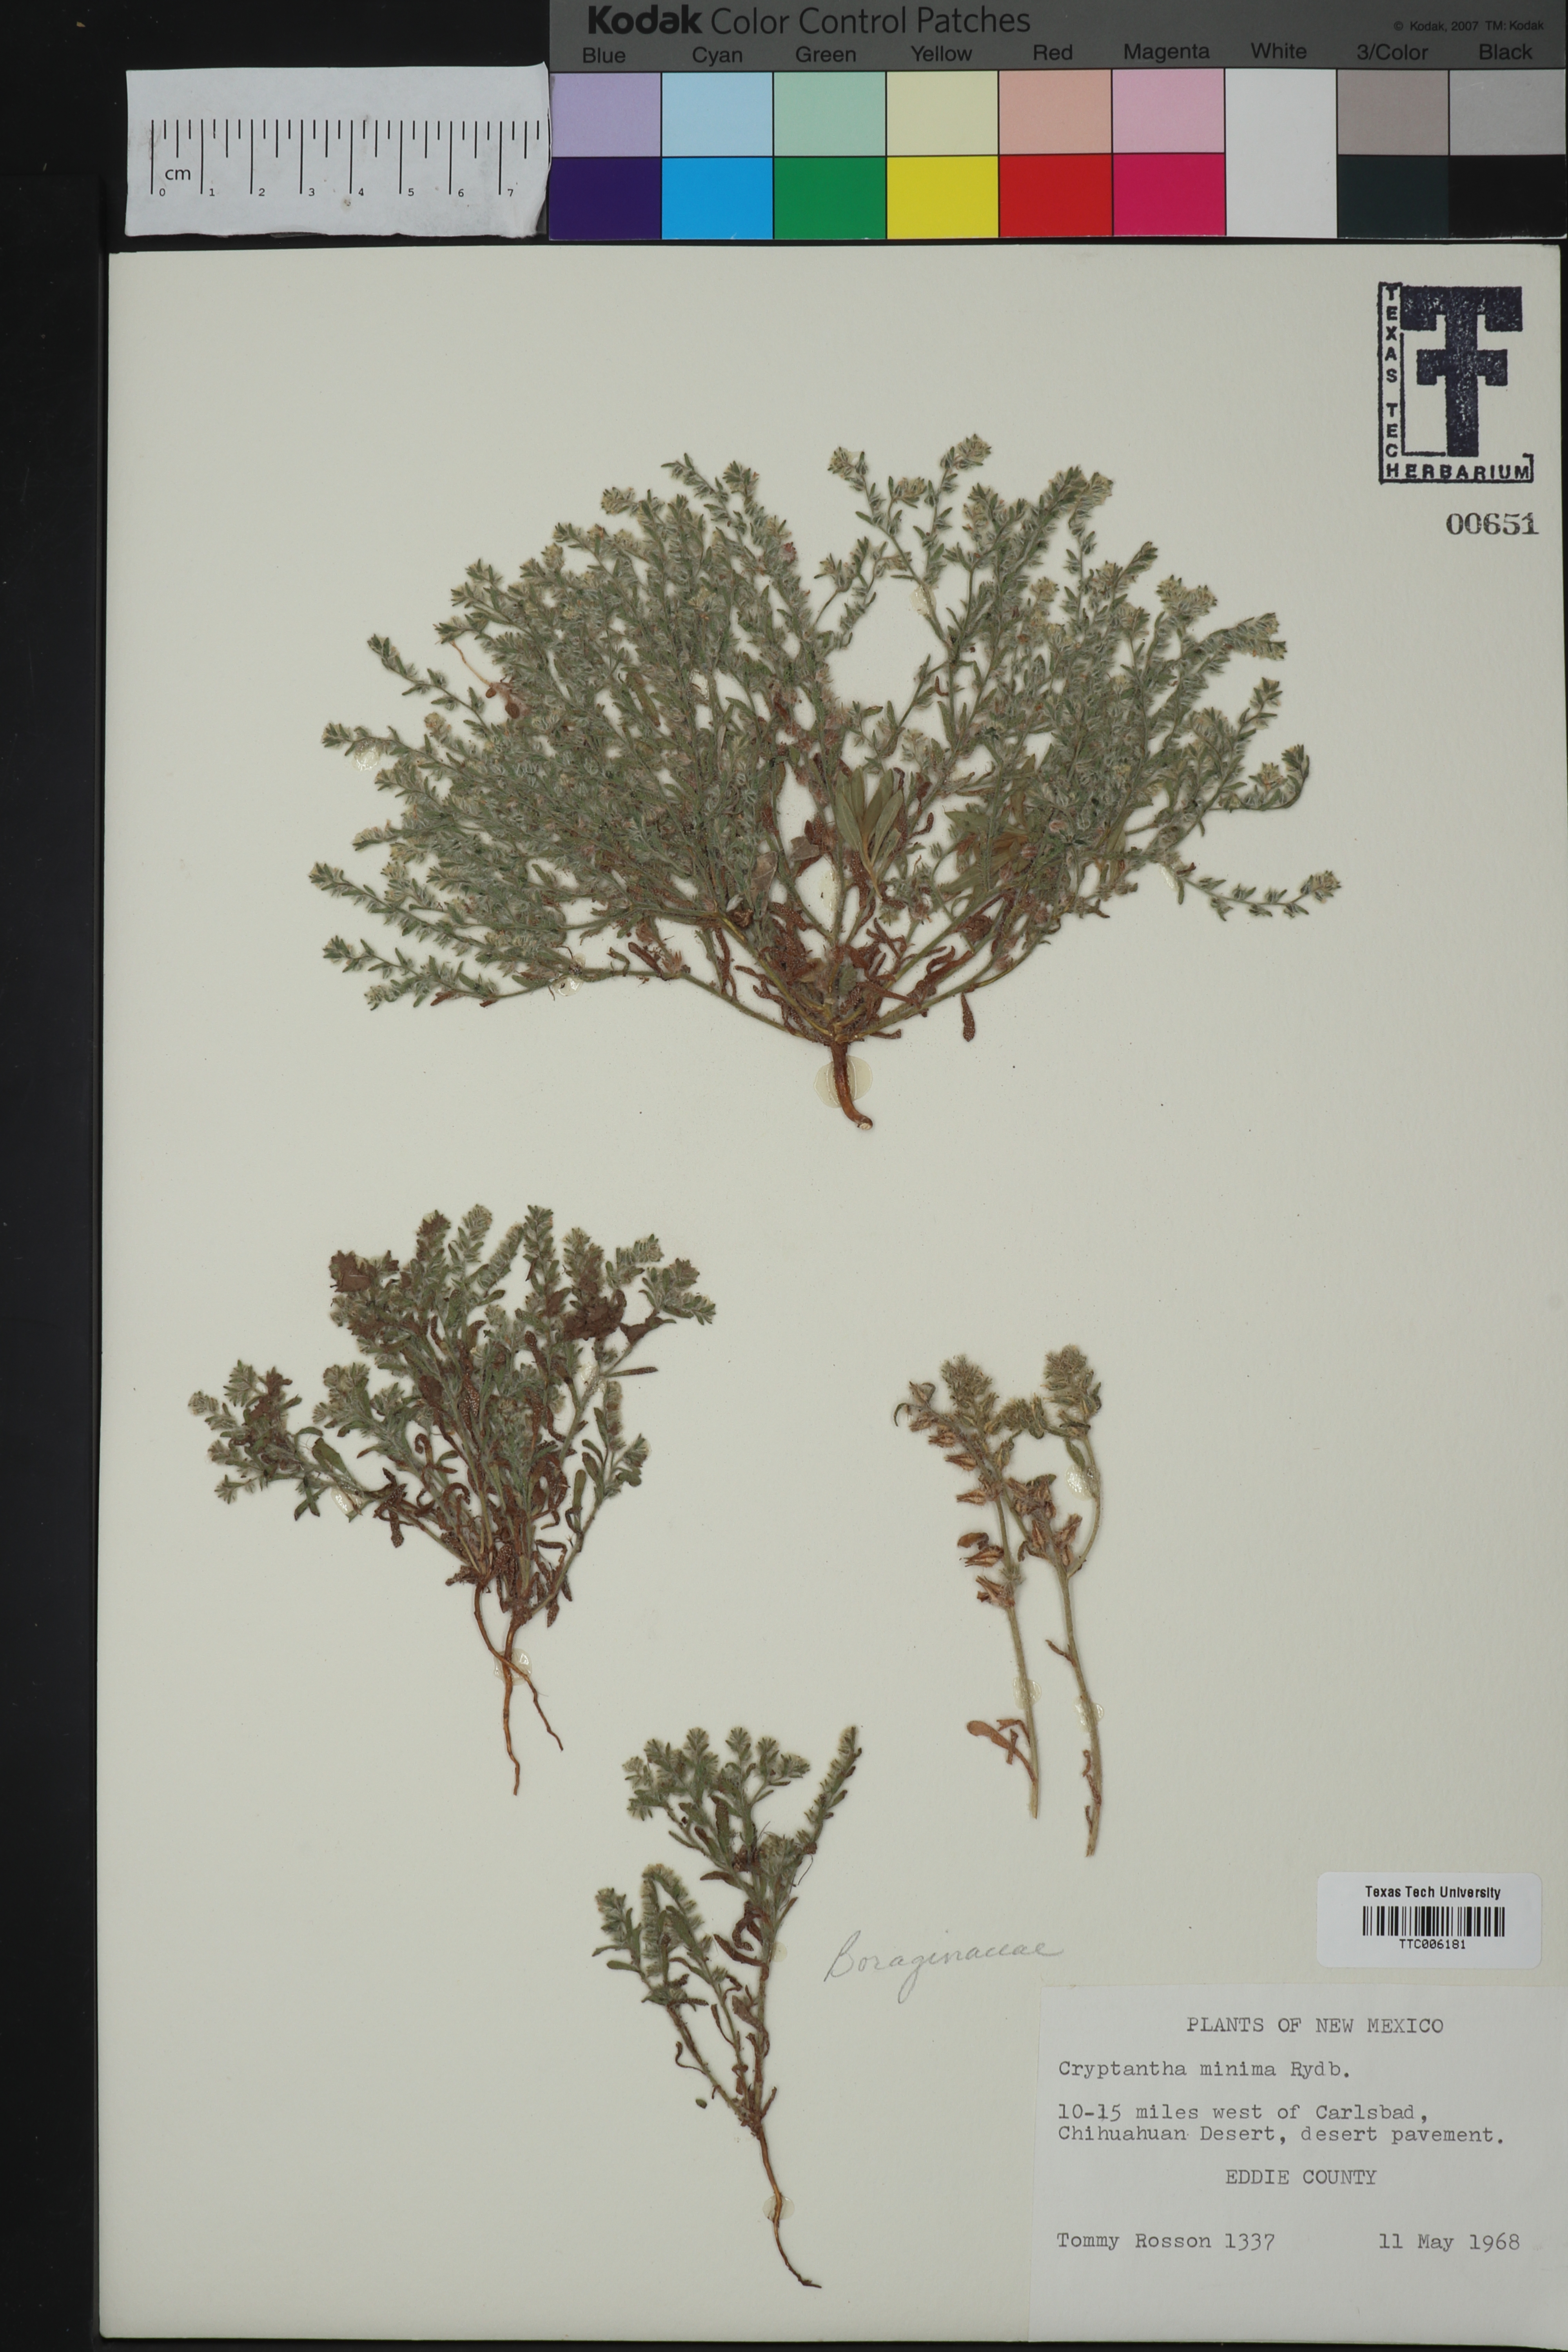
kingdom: Plantae
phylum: Tracheophyta
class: Magnoliopsida
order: Boraginales
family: Boraginaceae
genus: Cryptantha
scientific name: Cryptantha minima
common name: Little cat's-eye
